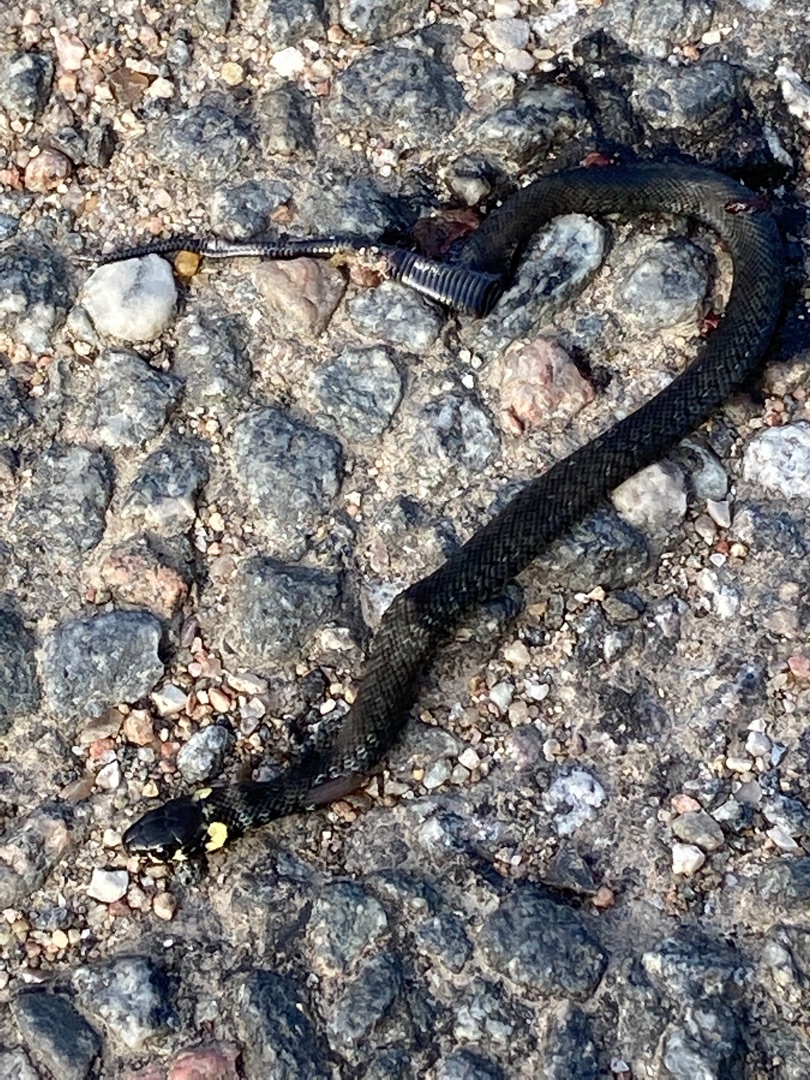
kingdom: Animalia
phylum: Chordata
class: Squamata
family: Colubridae
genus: Natrix
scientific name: Natrix natrix
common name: Snog
